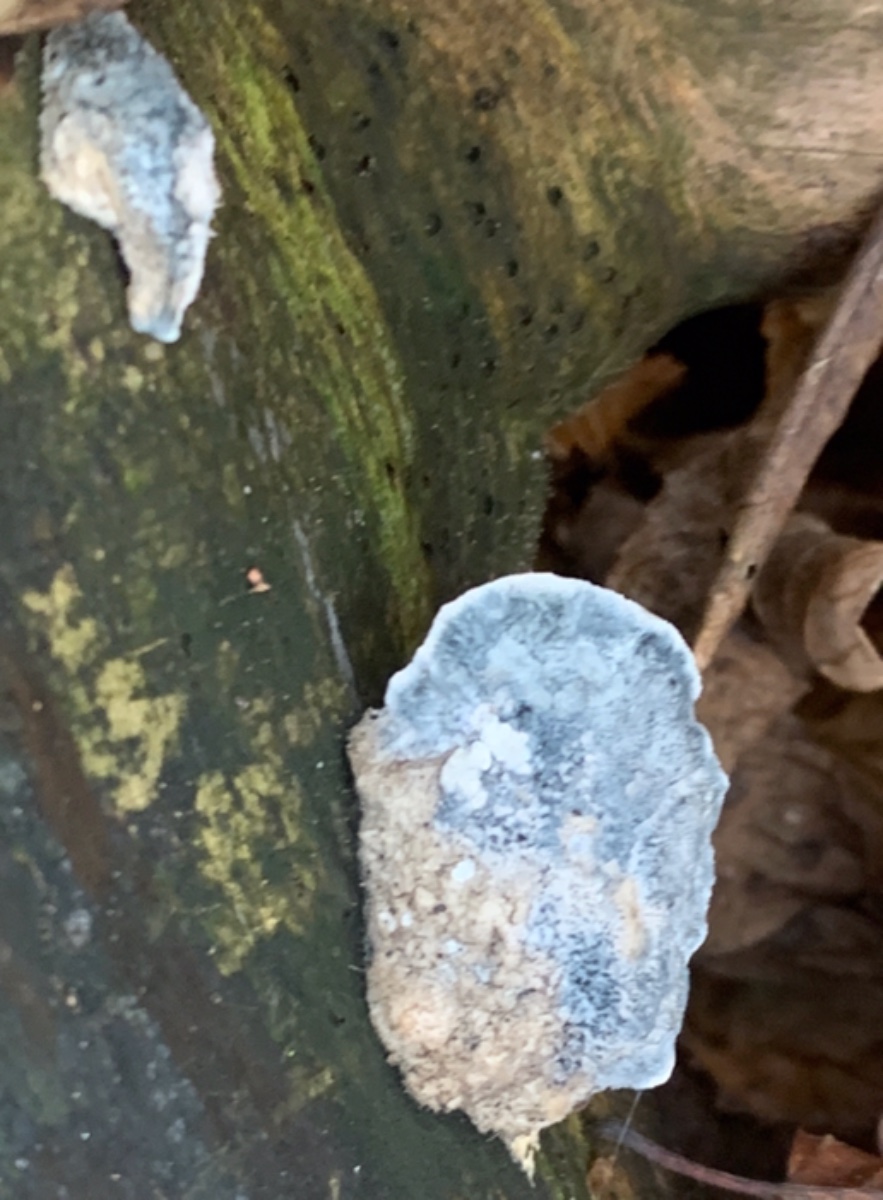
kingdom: Fungi
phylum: Basidiomycota
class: Agaricomycetes
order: Polyporales
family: Polyporaceae
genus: Cyanosporus
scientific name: Cyanosporus caesius
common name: blålig kødporesvamp
